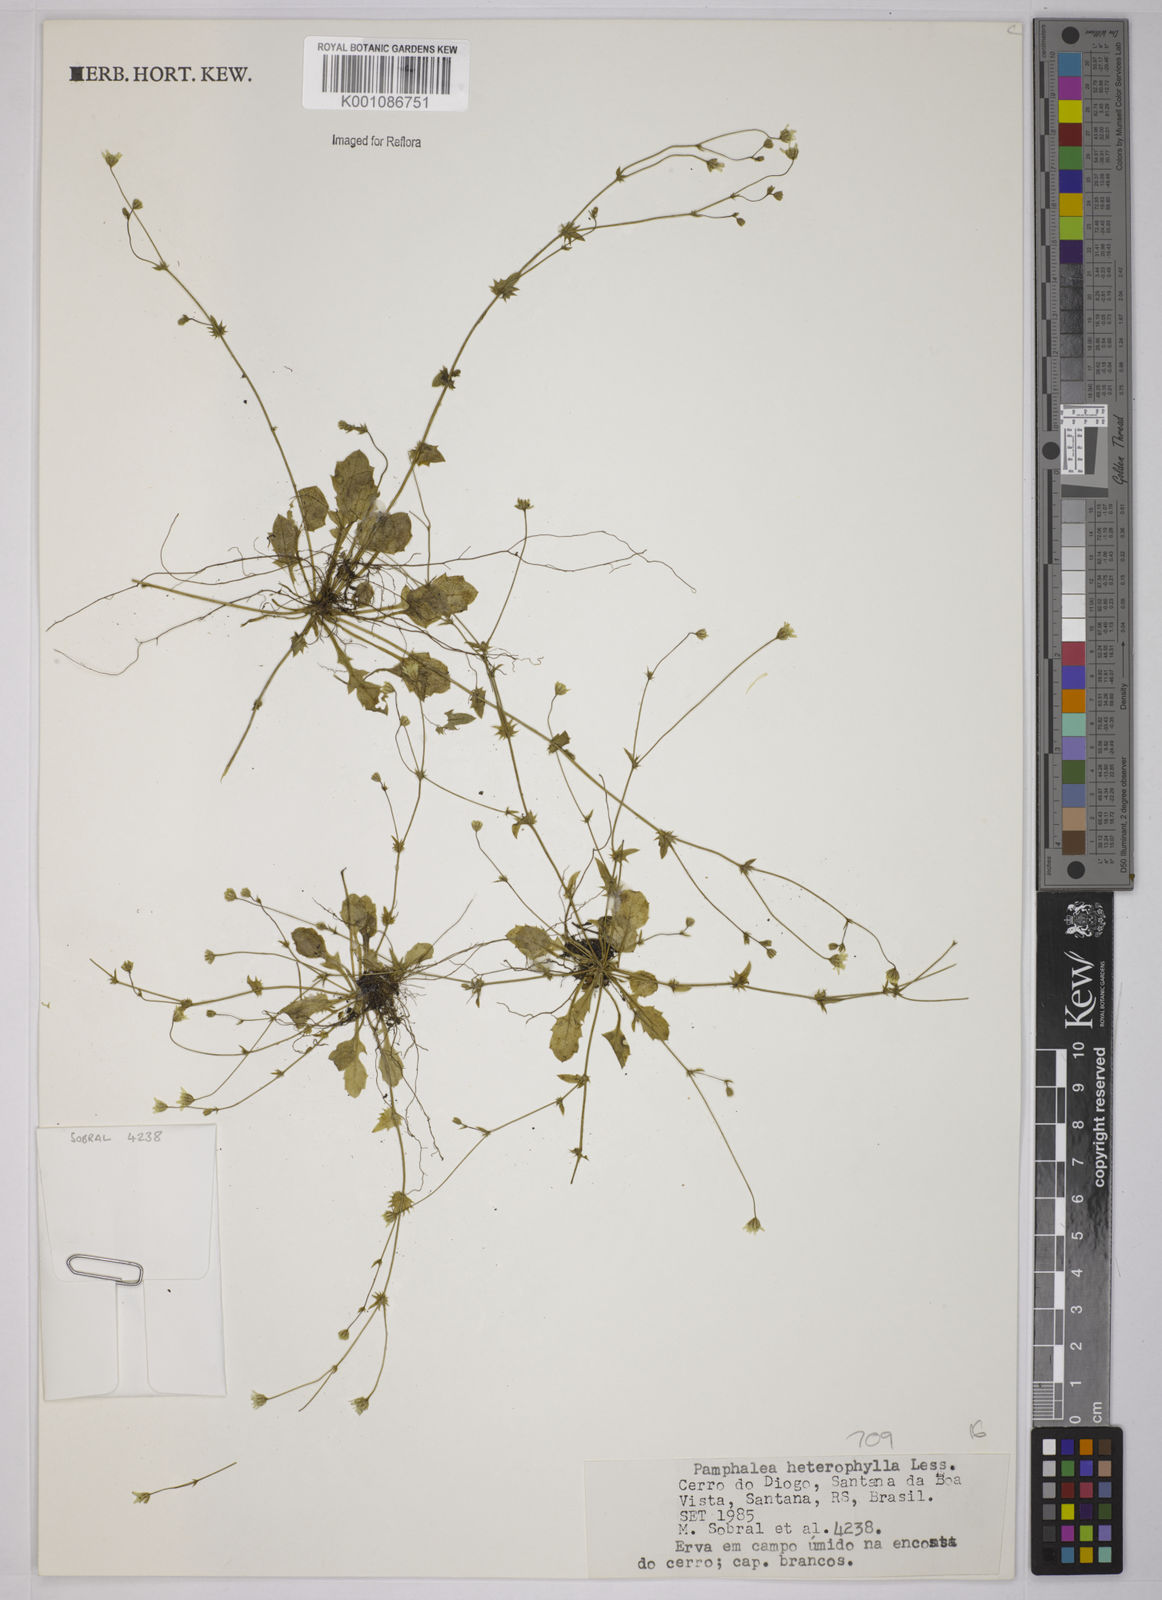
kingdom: Plantae
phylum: Tracheophyta
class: Magnoliopsida
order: Asterales
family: Asteraceae
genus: Panphalea
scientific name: Panphalea heterophylla
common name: Daisy
